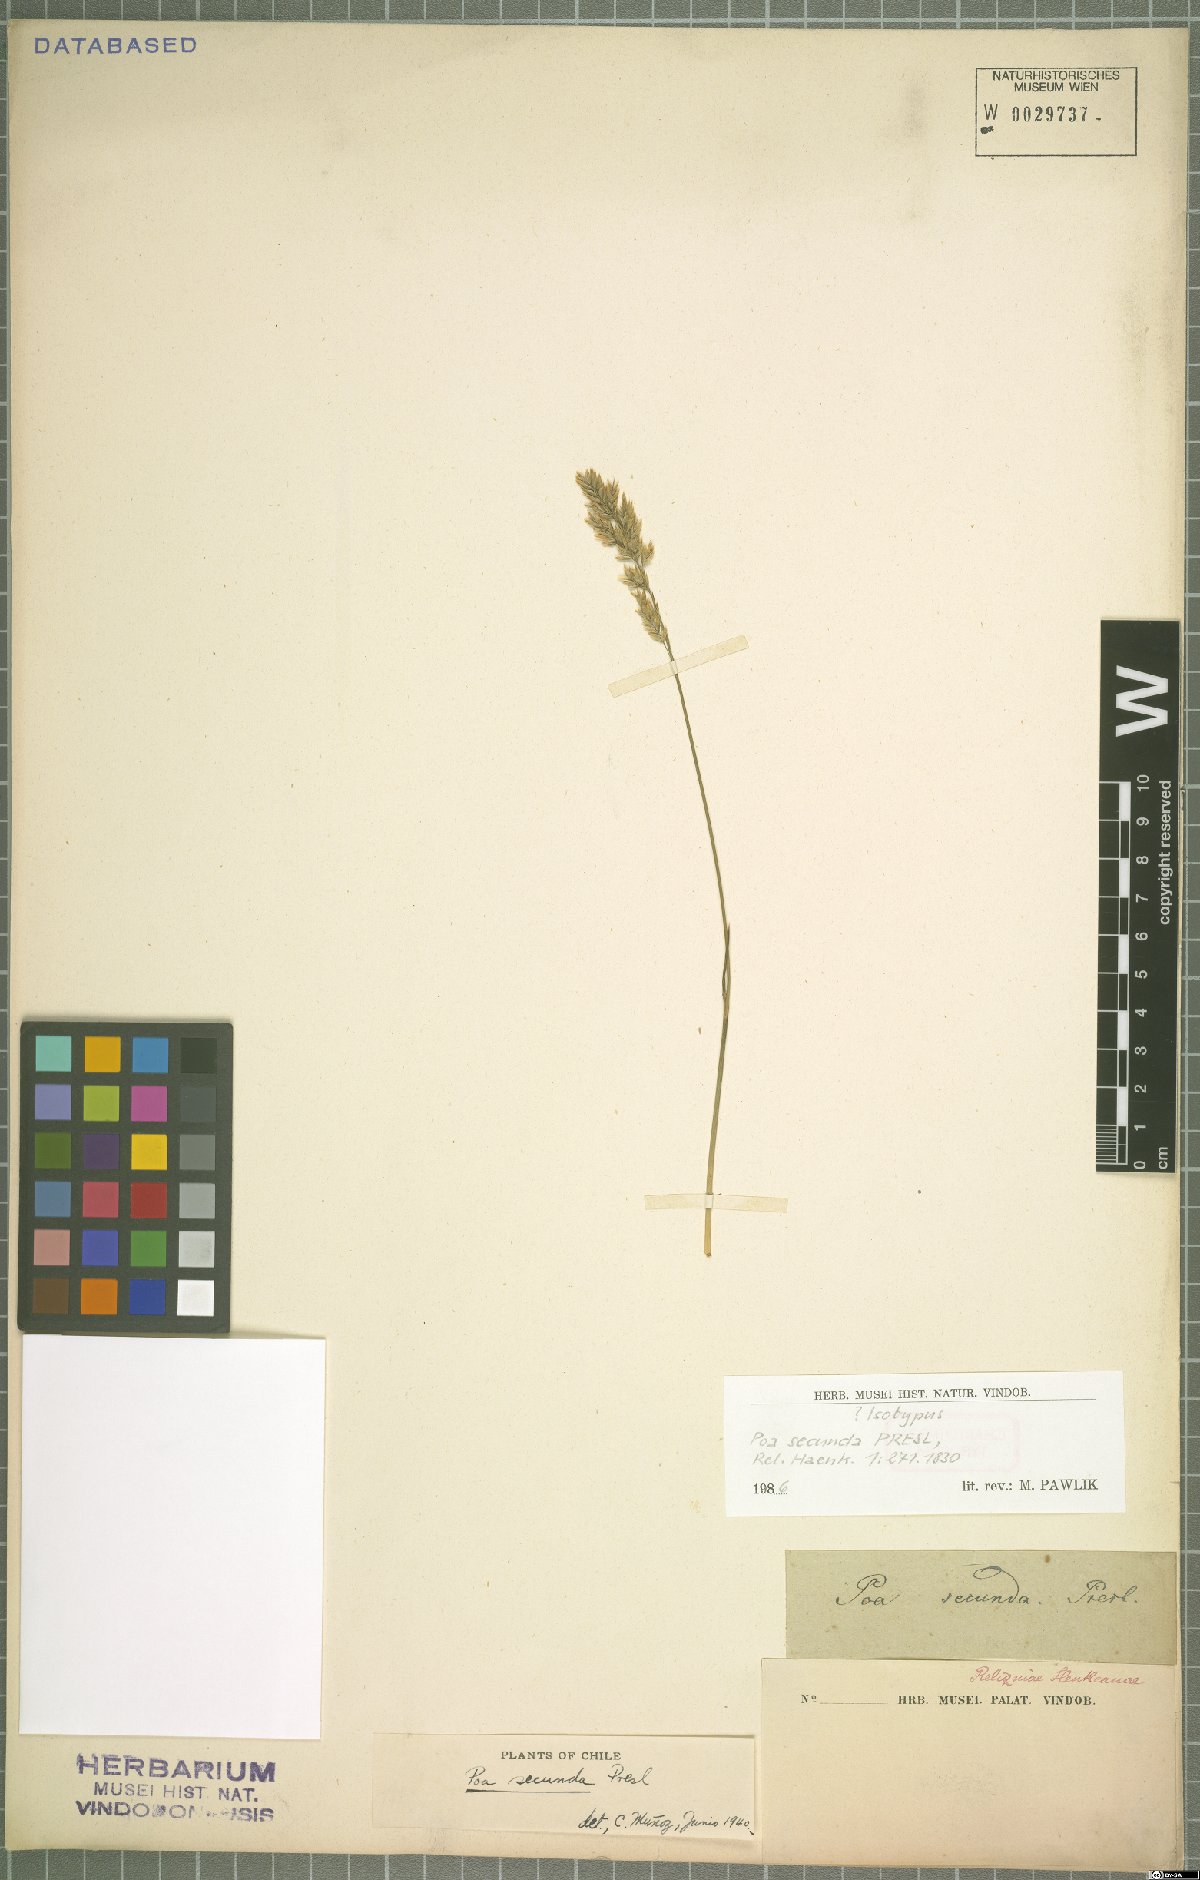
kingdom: Plantae
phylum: Tracheophyta
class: Liliopsida
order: Poales
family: Poaceae
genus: Poa
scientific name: Poa secunda
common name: Sandberg bluegrass
